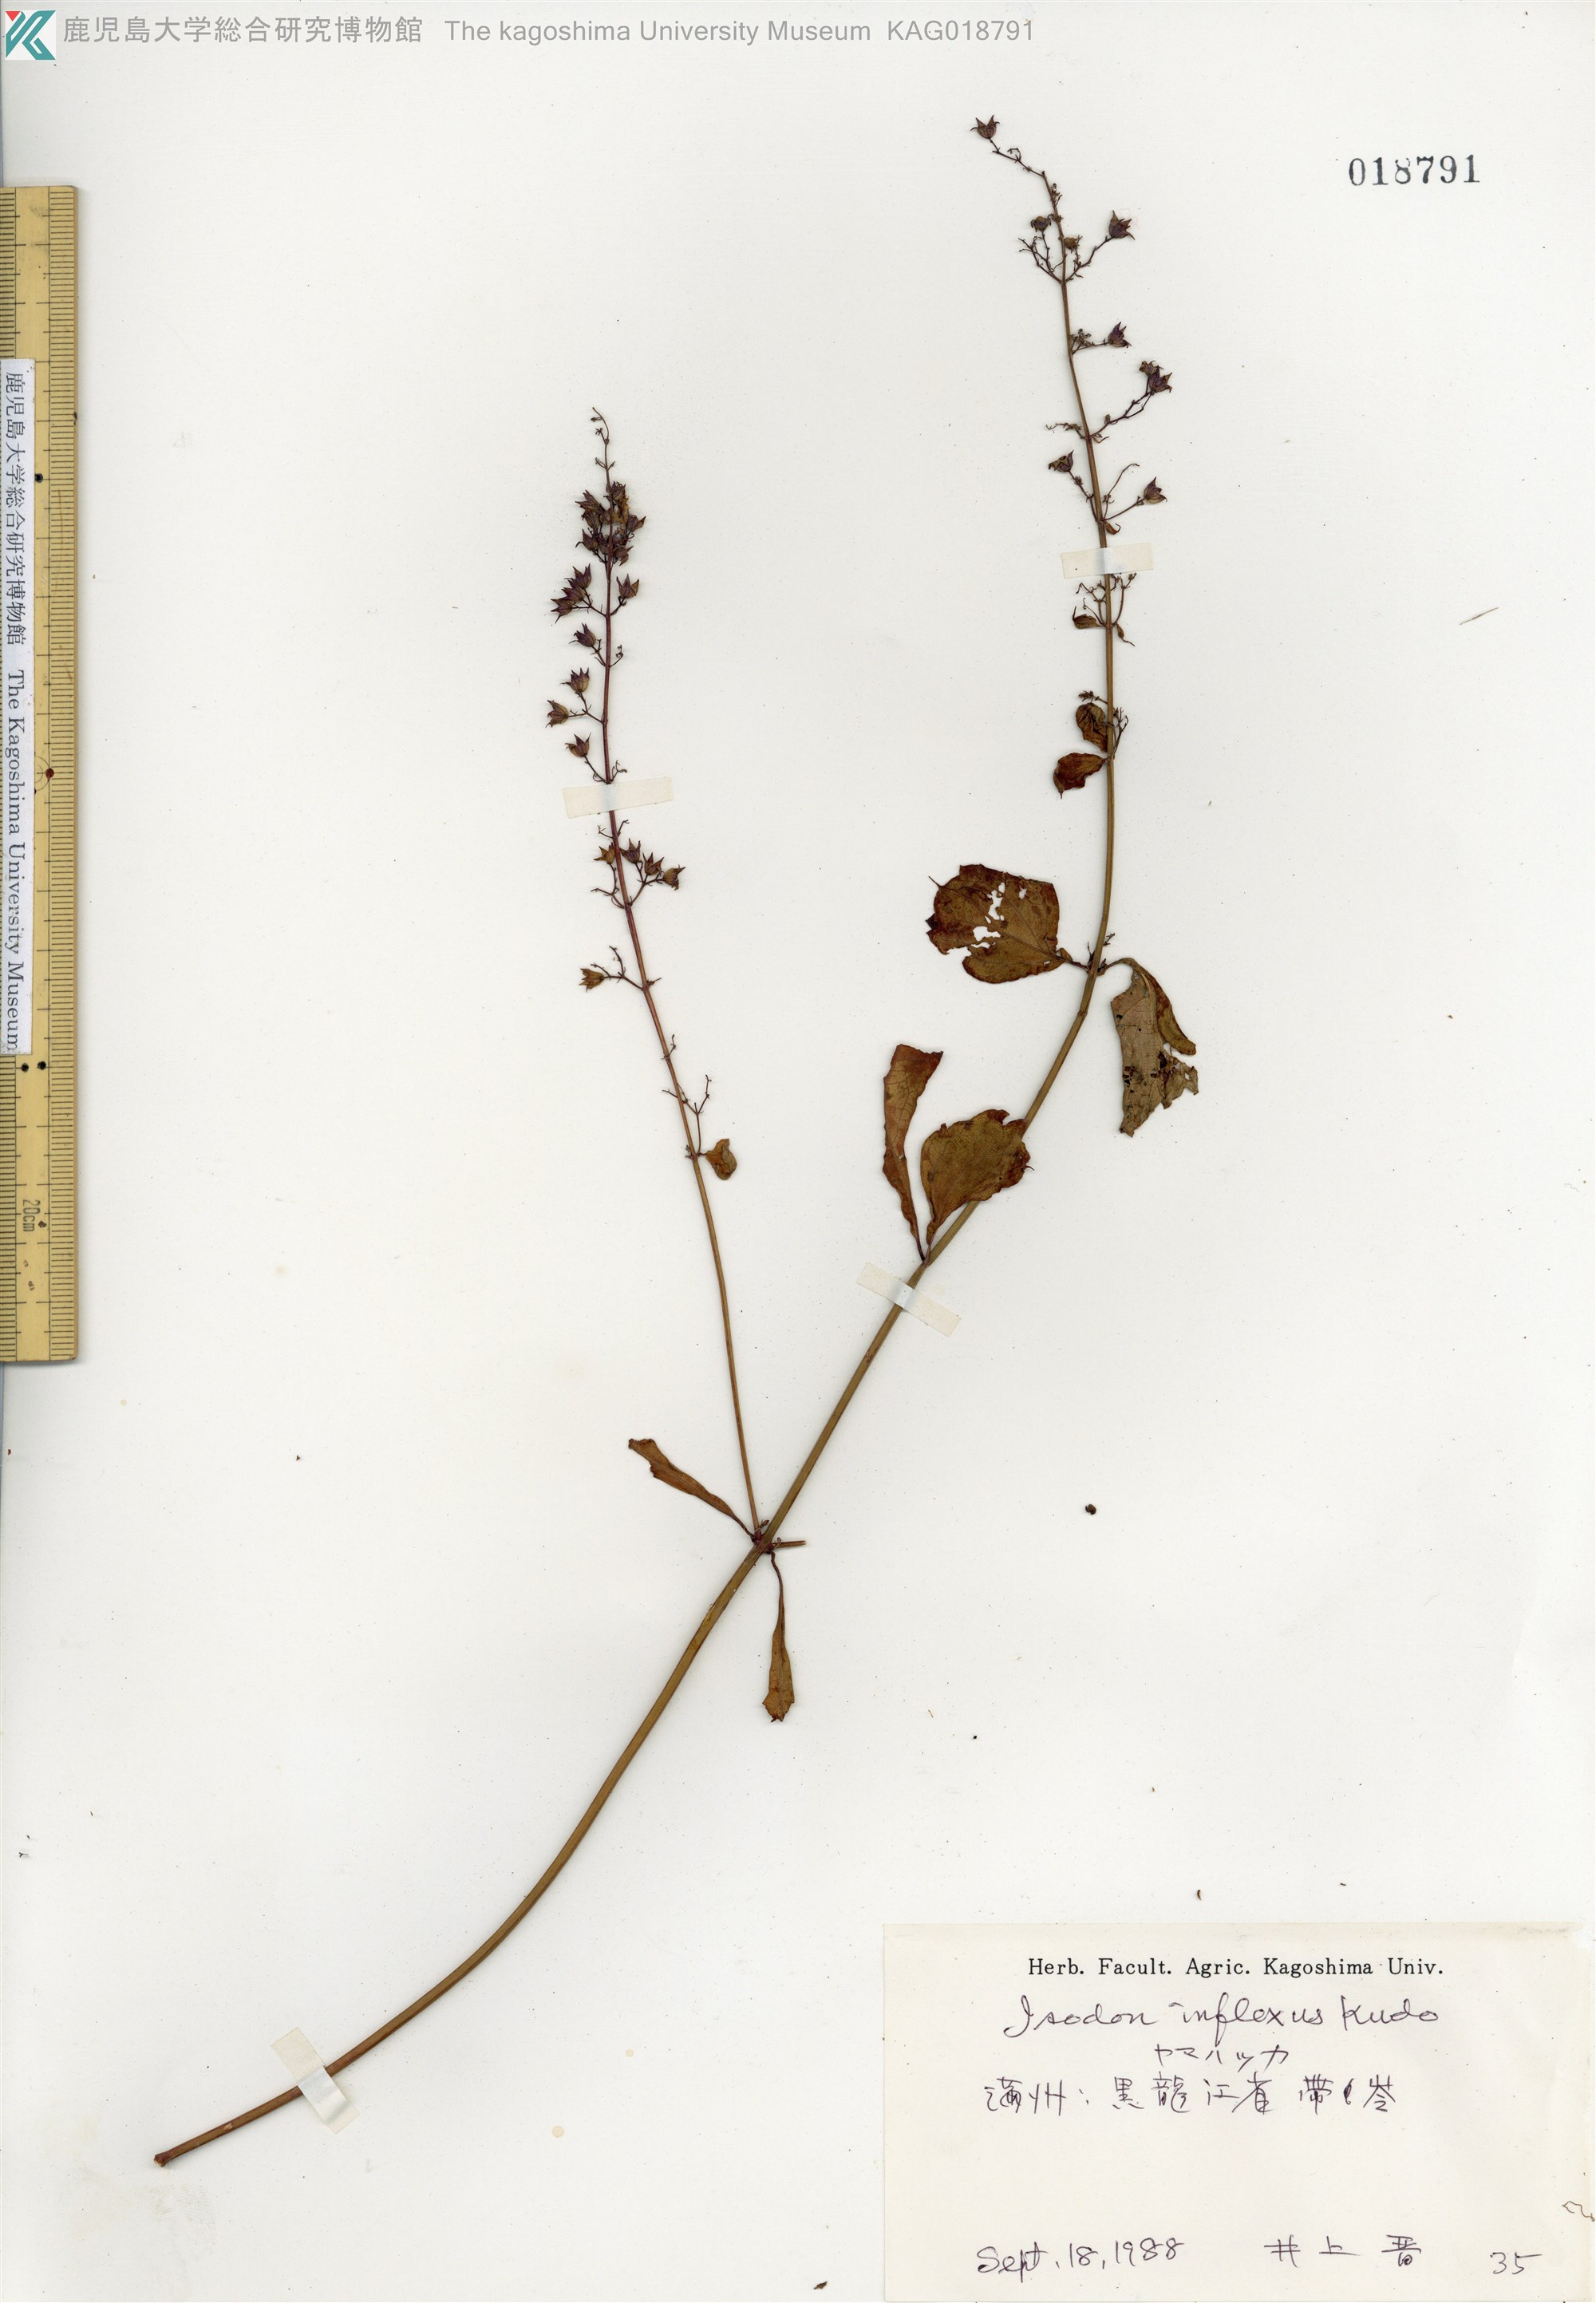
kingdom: Plantae
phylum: Tracheophyta
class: Magnoliopsida
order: Lamiales
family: Lamiaceae
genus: Isodon
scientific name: Isodon inflexus
